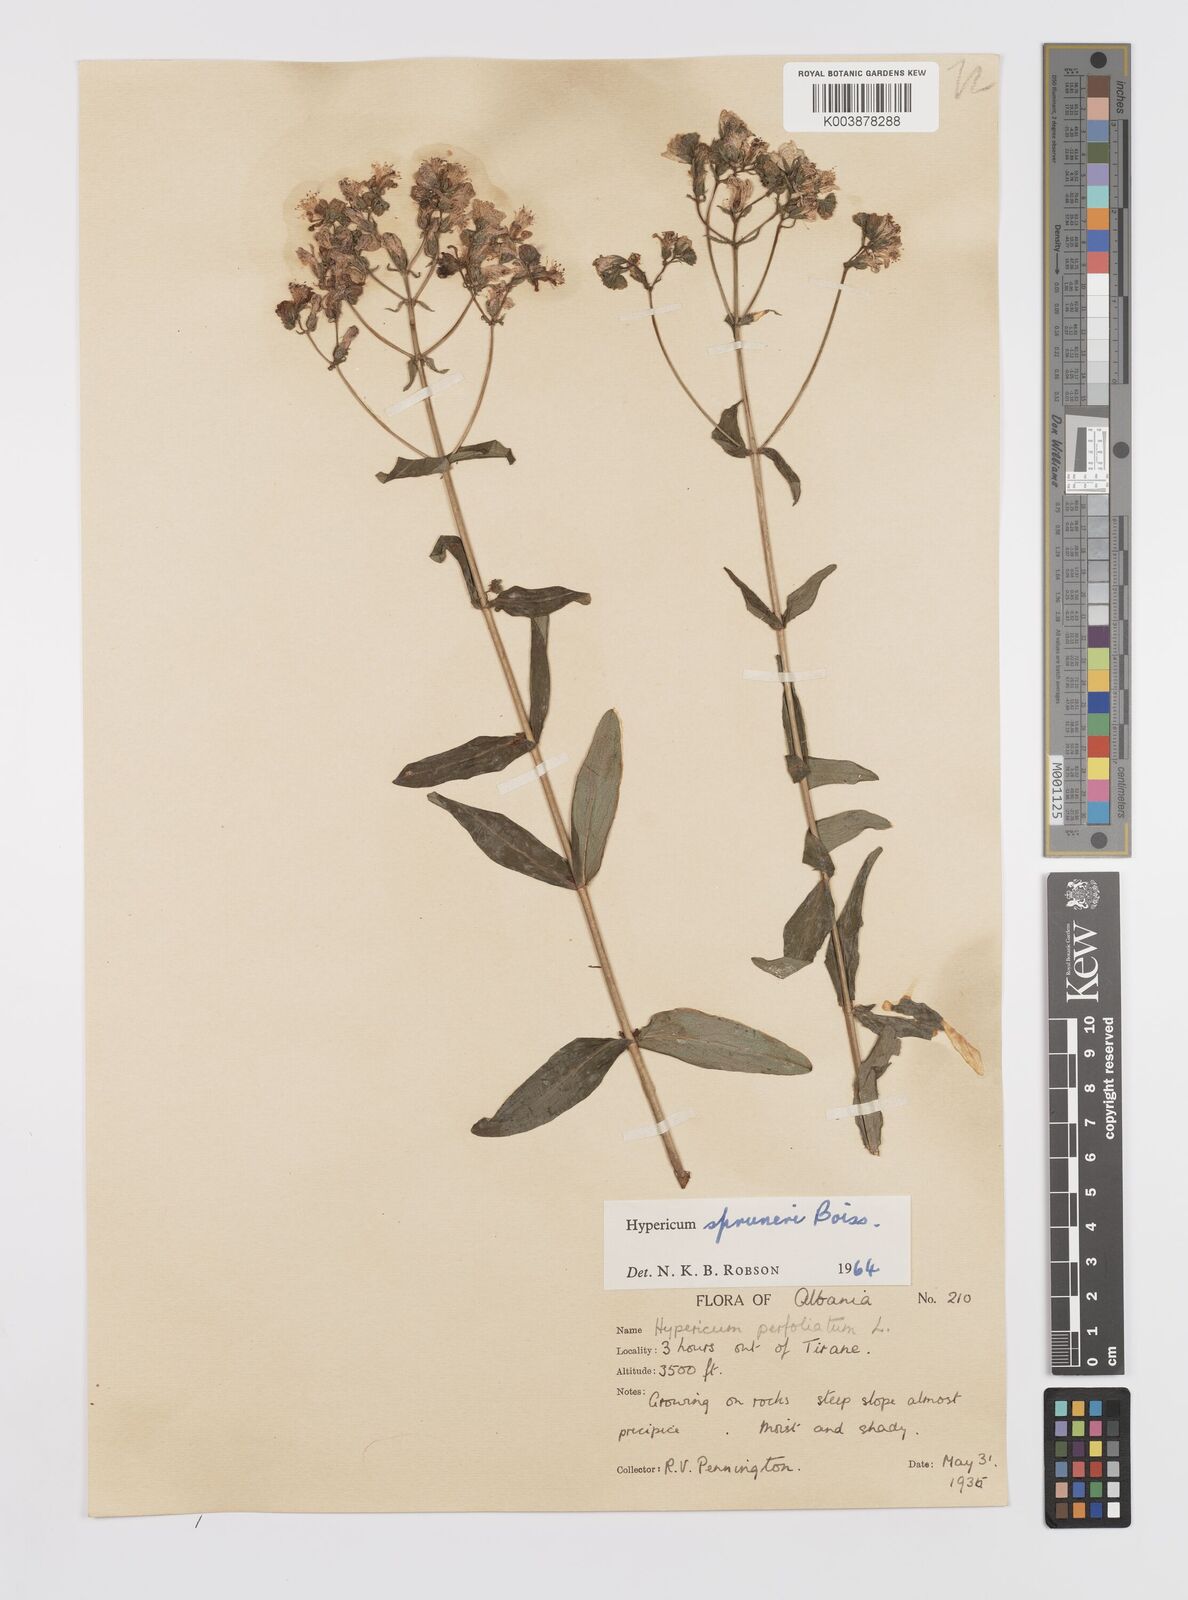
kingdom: Plantae
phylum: Tracheophyta
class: Magnoliopsida
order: Malpighiales
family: Hypericaceae
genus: Hypericum
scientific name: Hypericum spruneri
